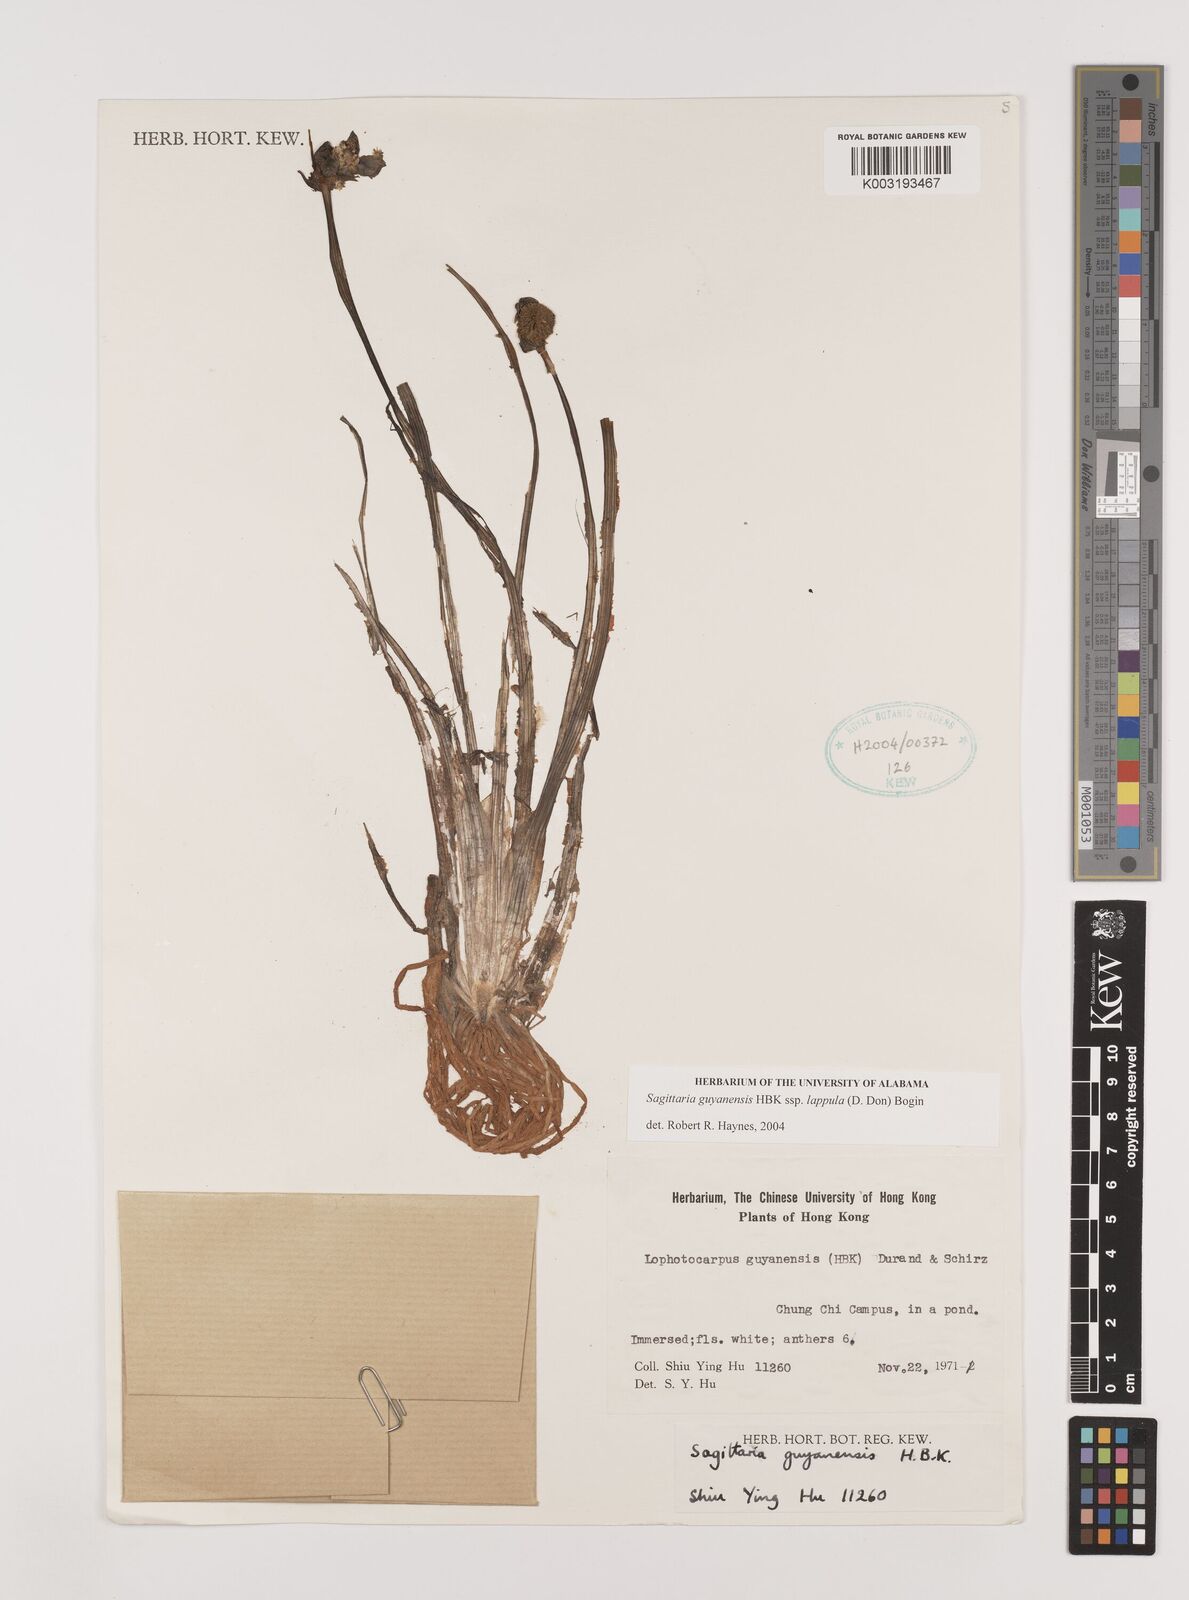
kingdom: Plantae
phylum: Tracheophyta
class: Liliopsida
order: Alismatales
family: Alismataceae
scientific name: Alismataceae
